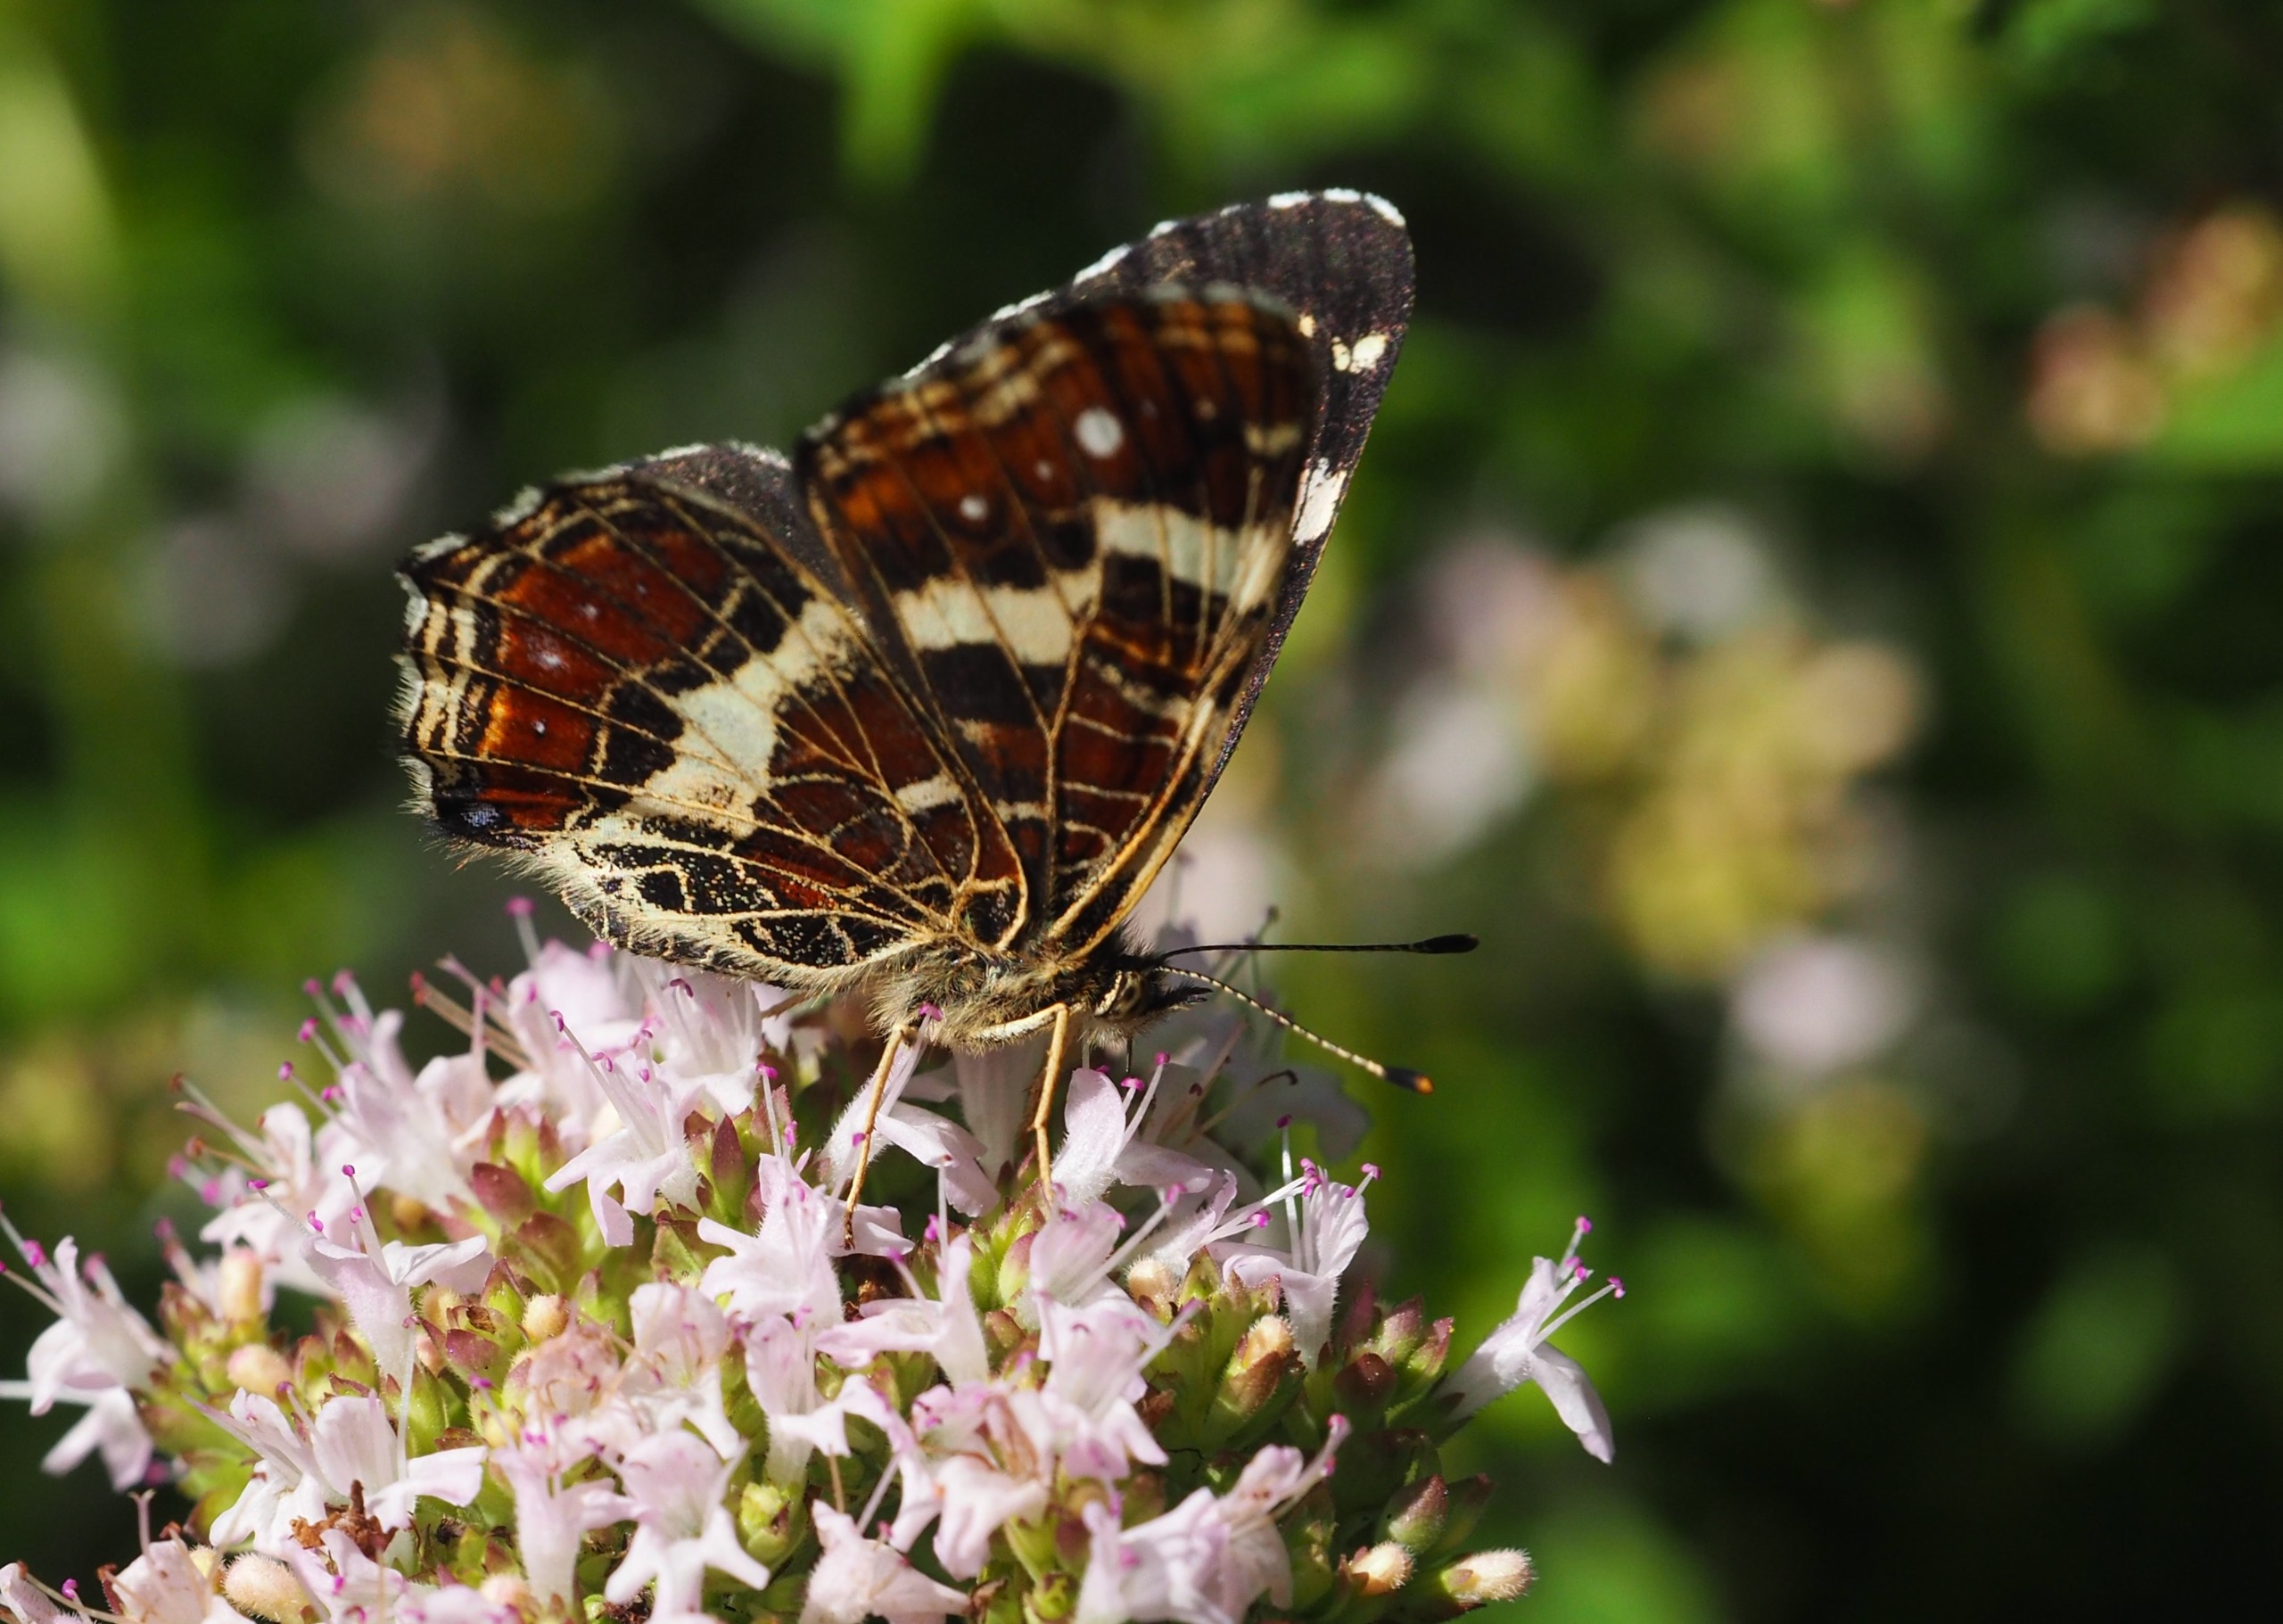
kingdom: Animalia
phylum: Arthropoda
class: Insecta
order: Lepidoptera
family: Nymphalidae
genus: Araschnia
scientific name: Araschnia levana
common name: Nældesommerfugl
